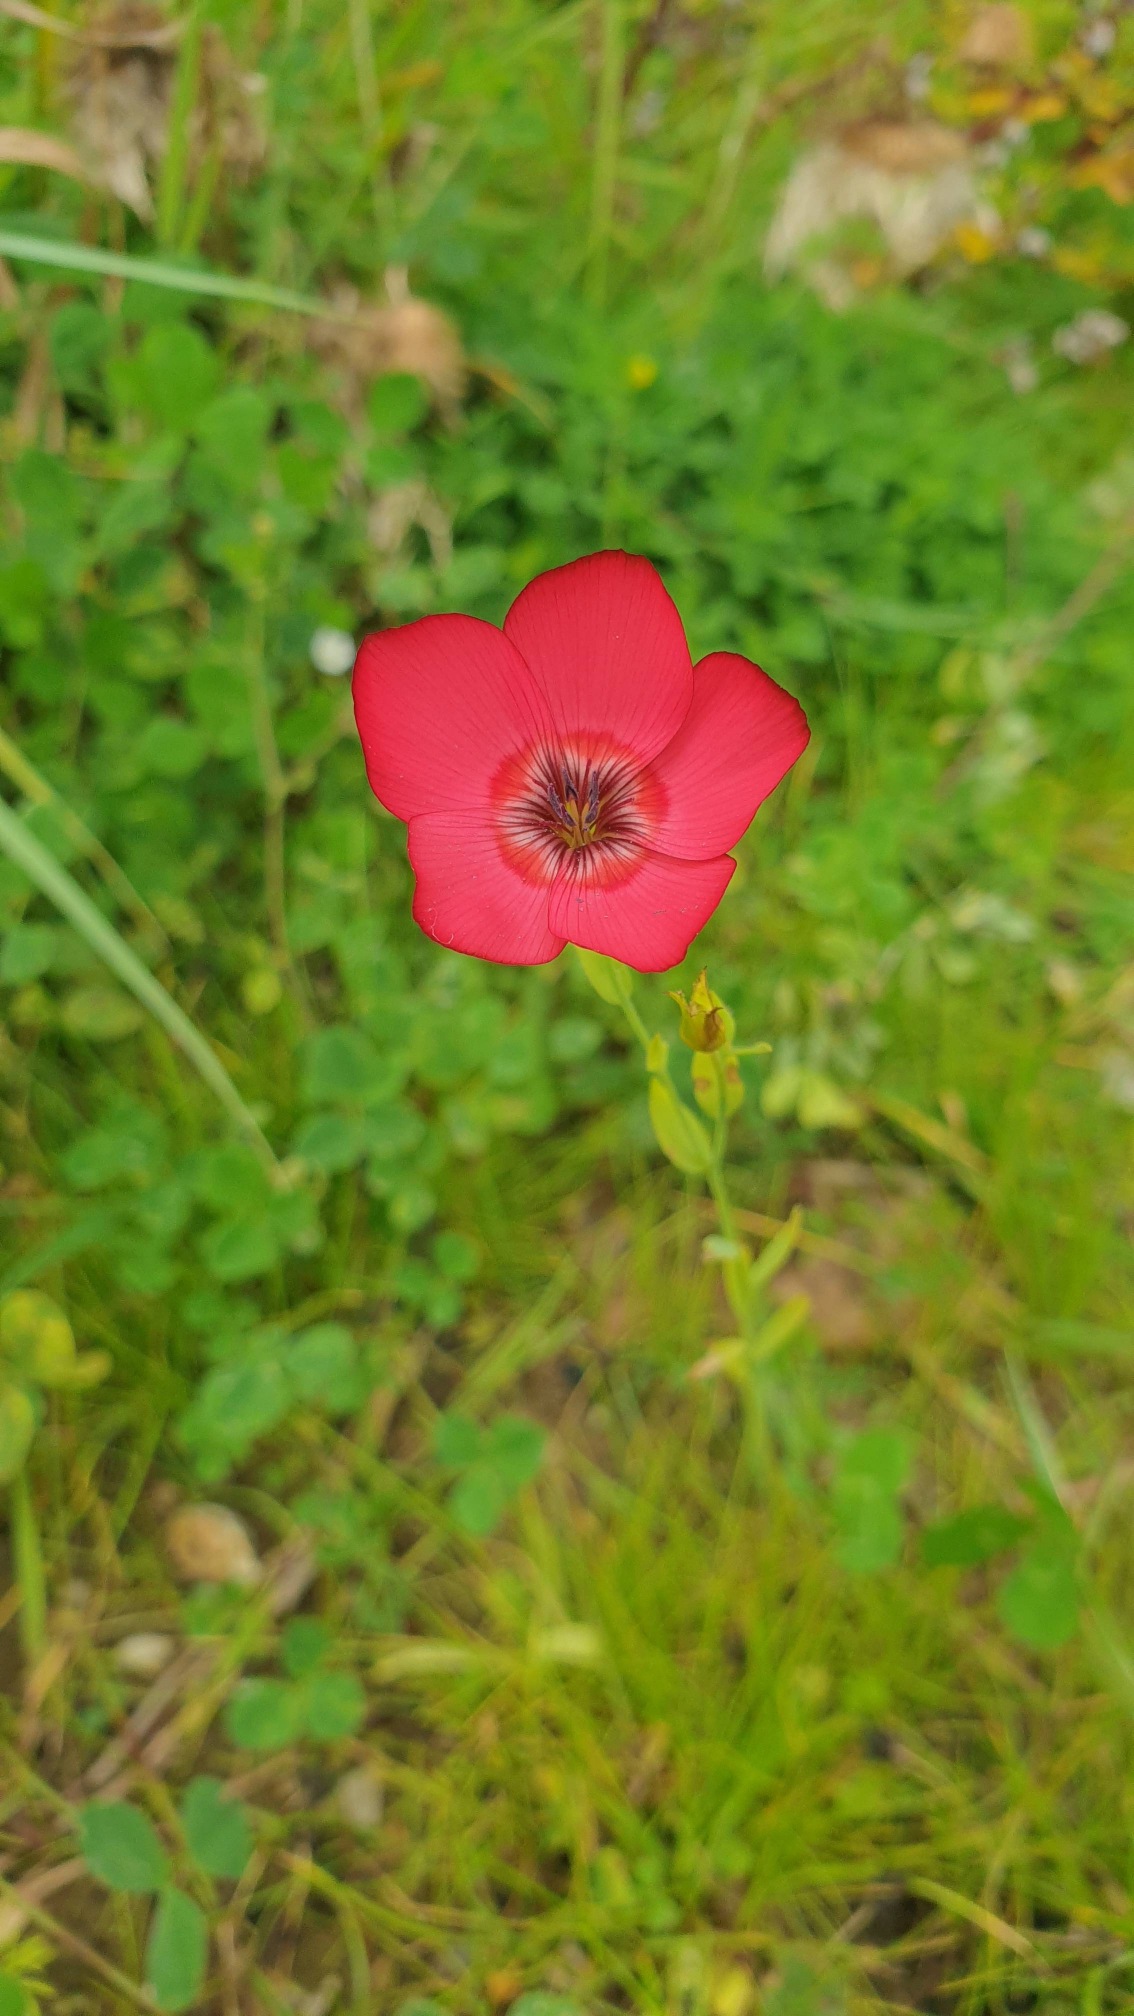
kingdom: Plantae
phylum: Tracheophyta
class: Magnoliopsida
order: Malpighiales
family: Linaceae
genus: Linum
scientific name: Linum grandiflorum
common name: Rød hør
